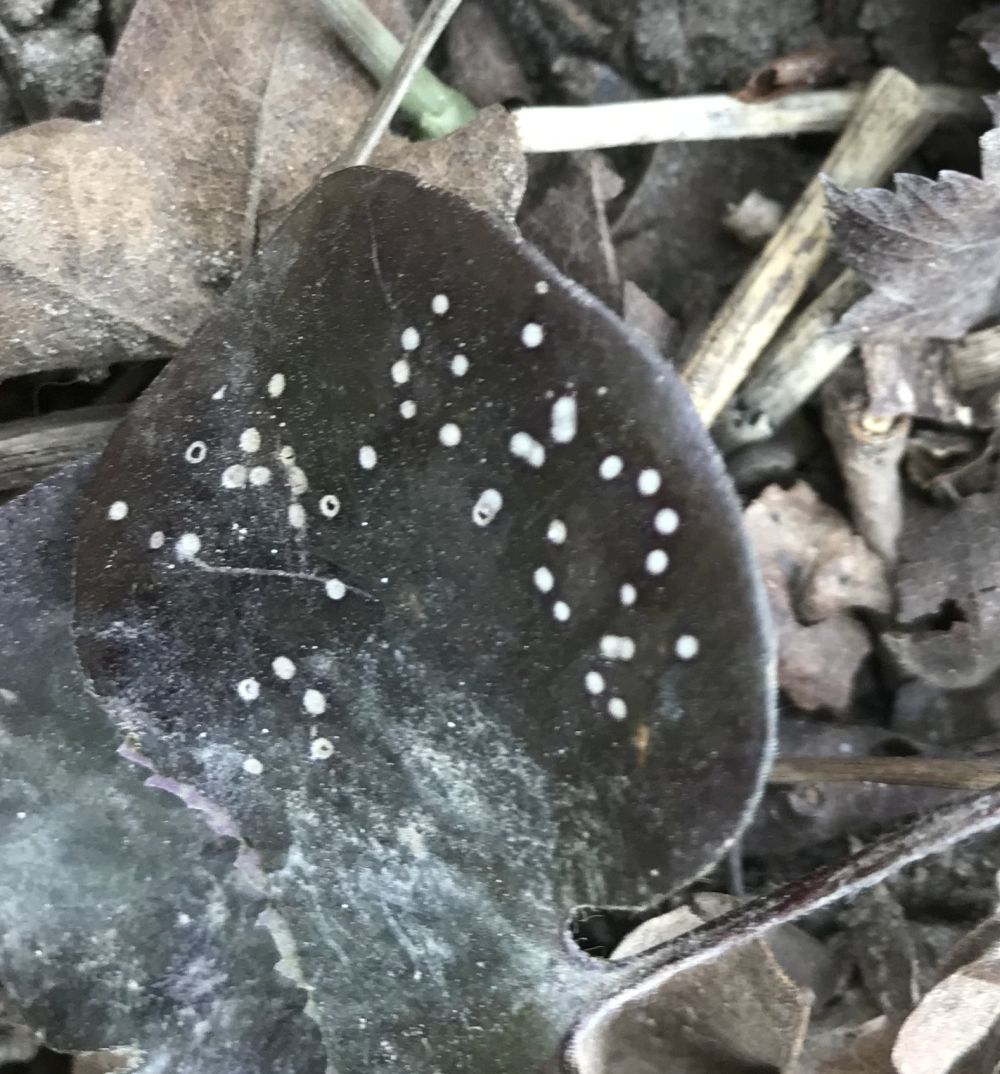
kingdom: Fungi
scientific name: Fungi
